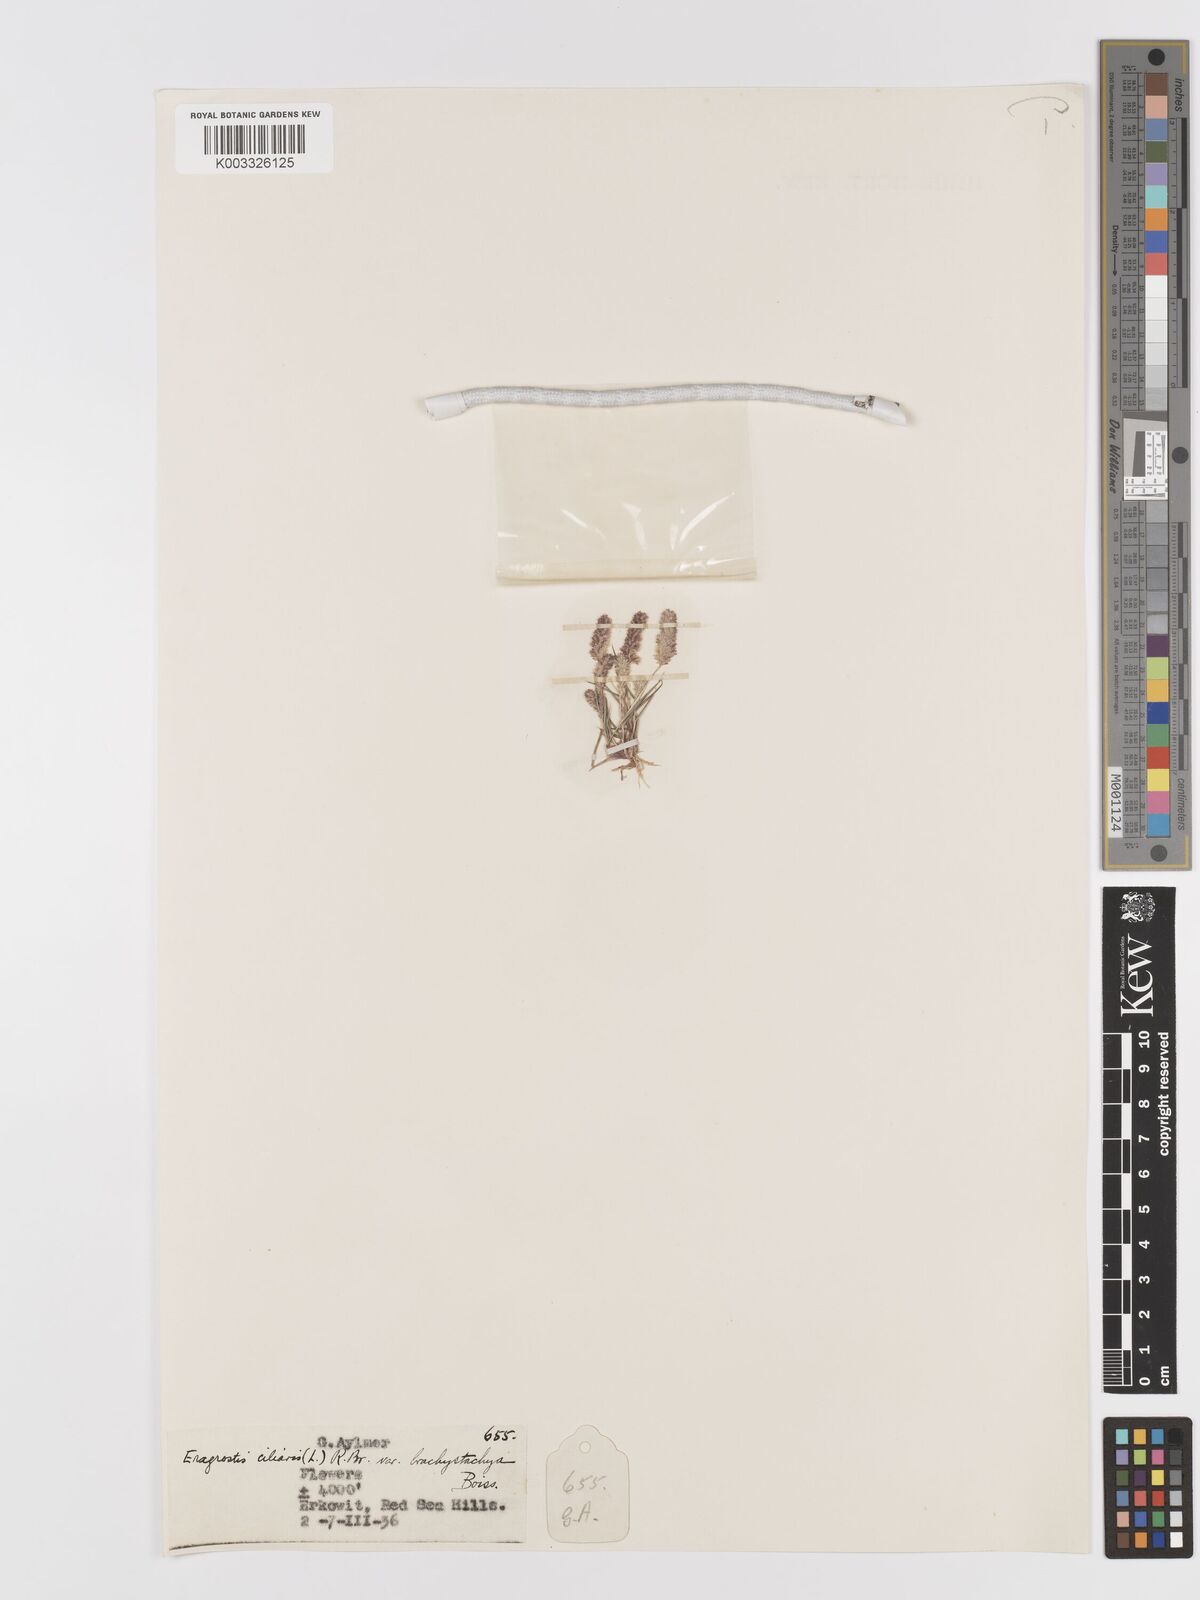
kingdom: Plantae
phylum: Tracheophyta
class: Liliopsida
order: Poales
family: Poaceae
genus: Eragrostis
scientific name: Eragrostis ciliaris
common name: Gophertail lovegrass
